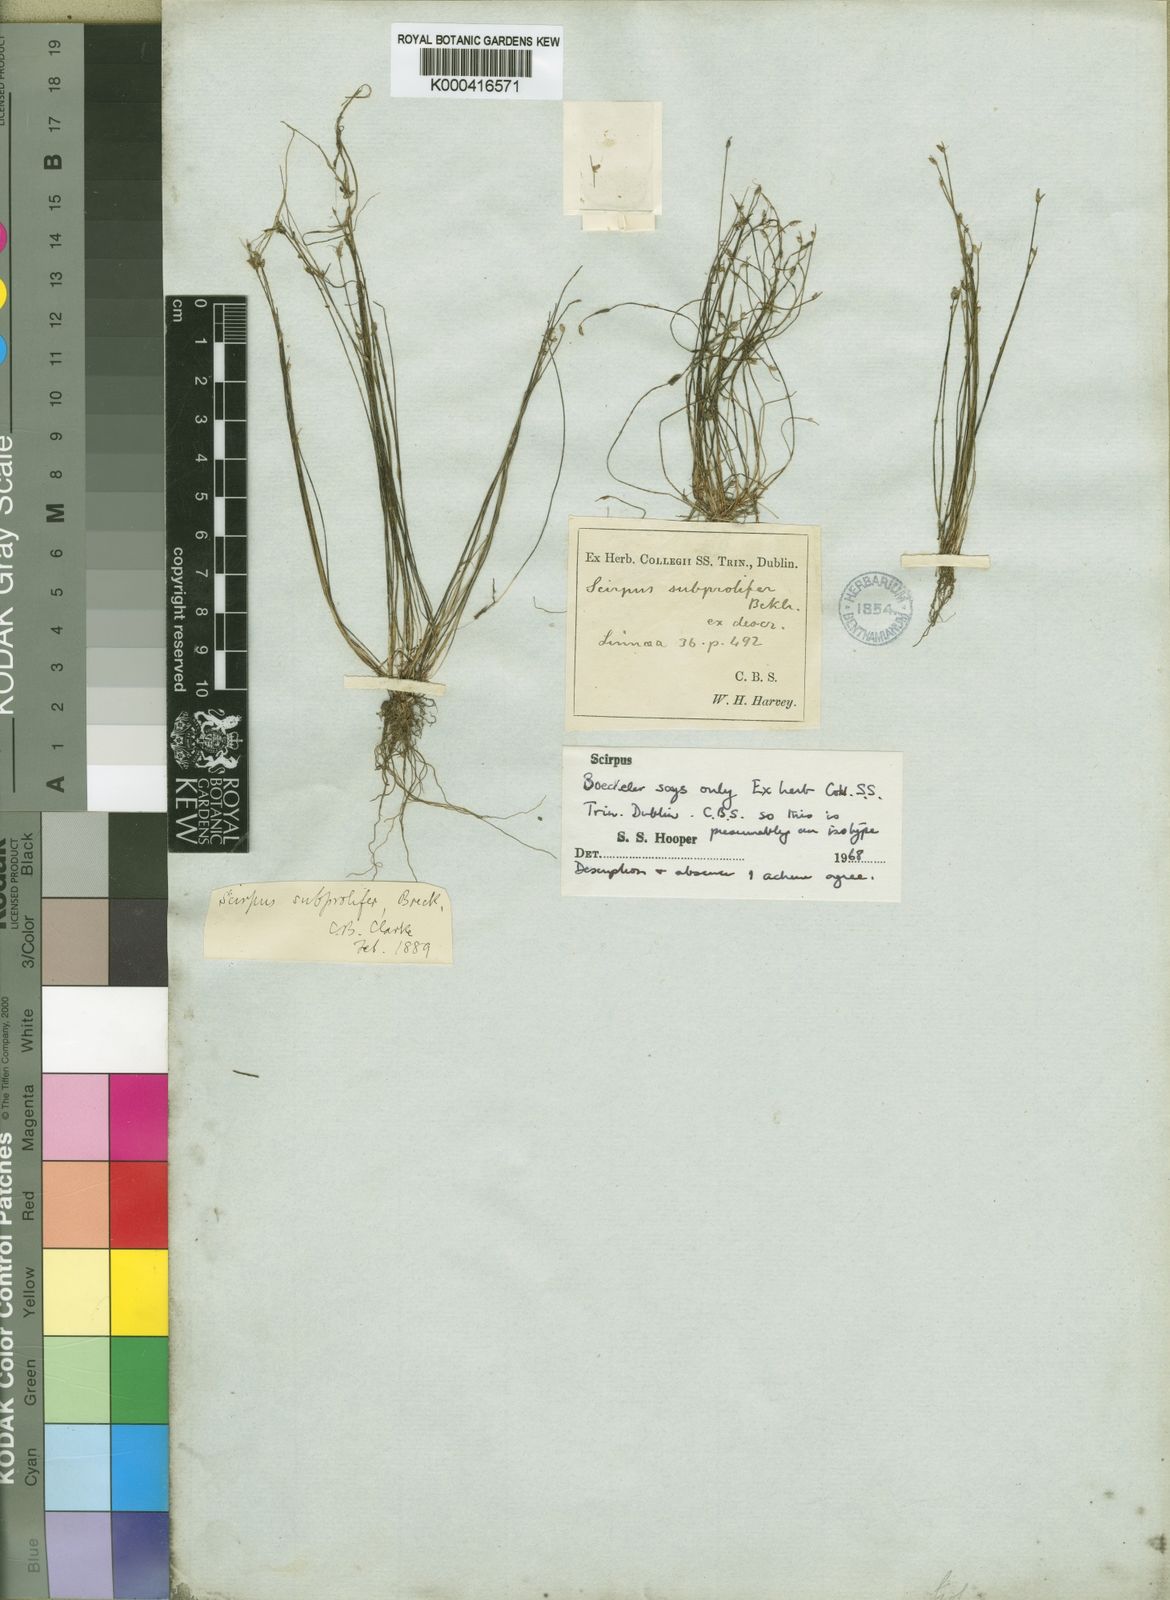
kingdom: Plantae
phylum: Tracheophyta
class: Liliopsida
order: Poales
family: Cyperaceae
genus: Isolepis
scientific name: Isolepis cernua
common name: Slender club-rush
